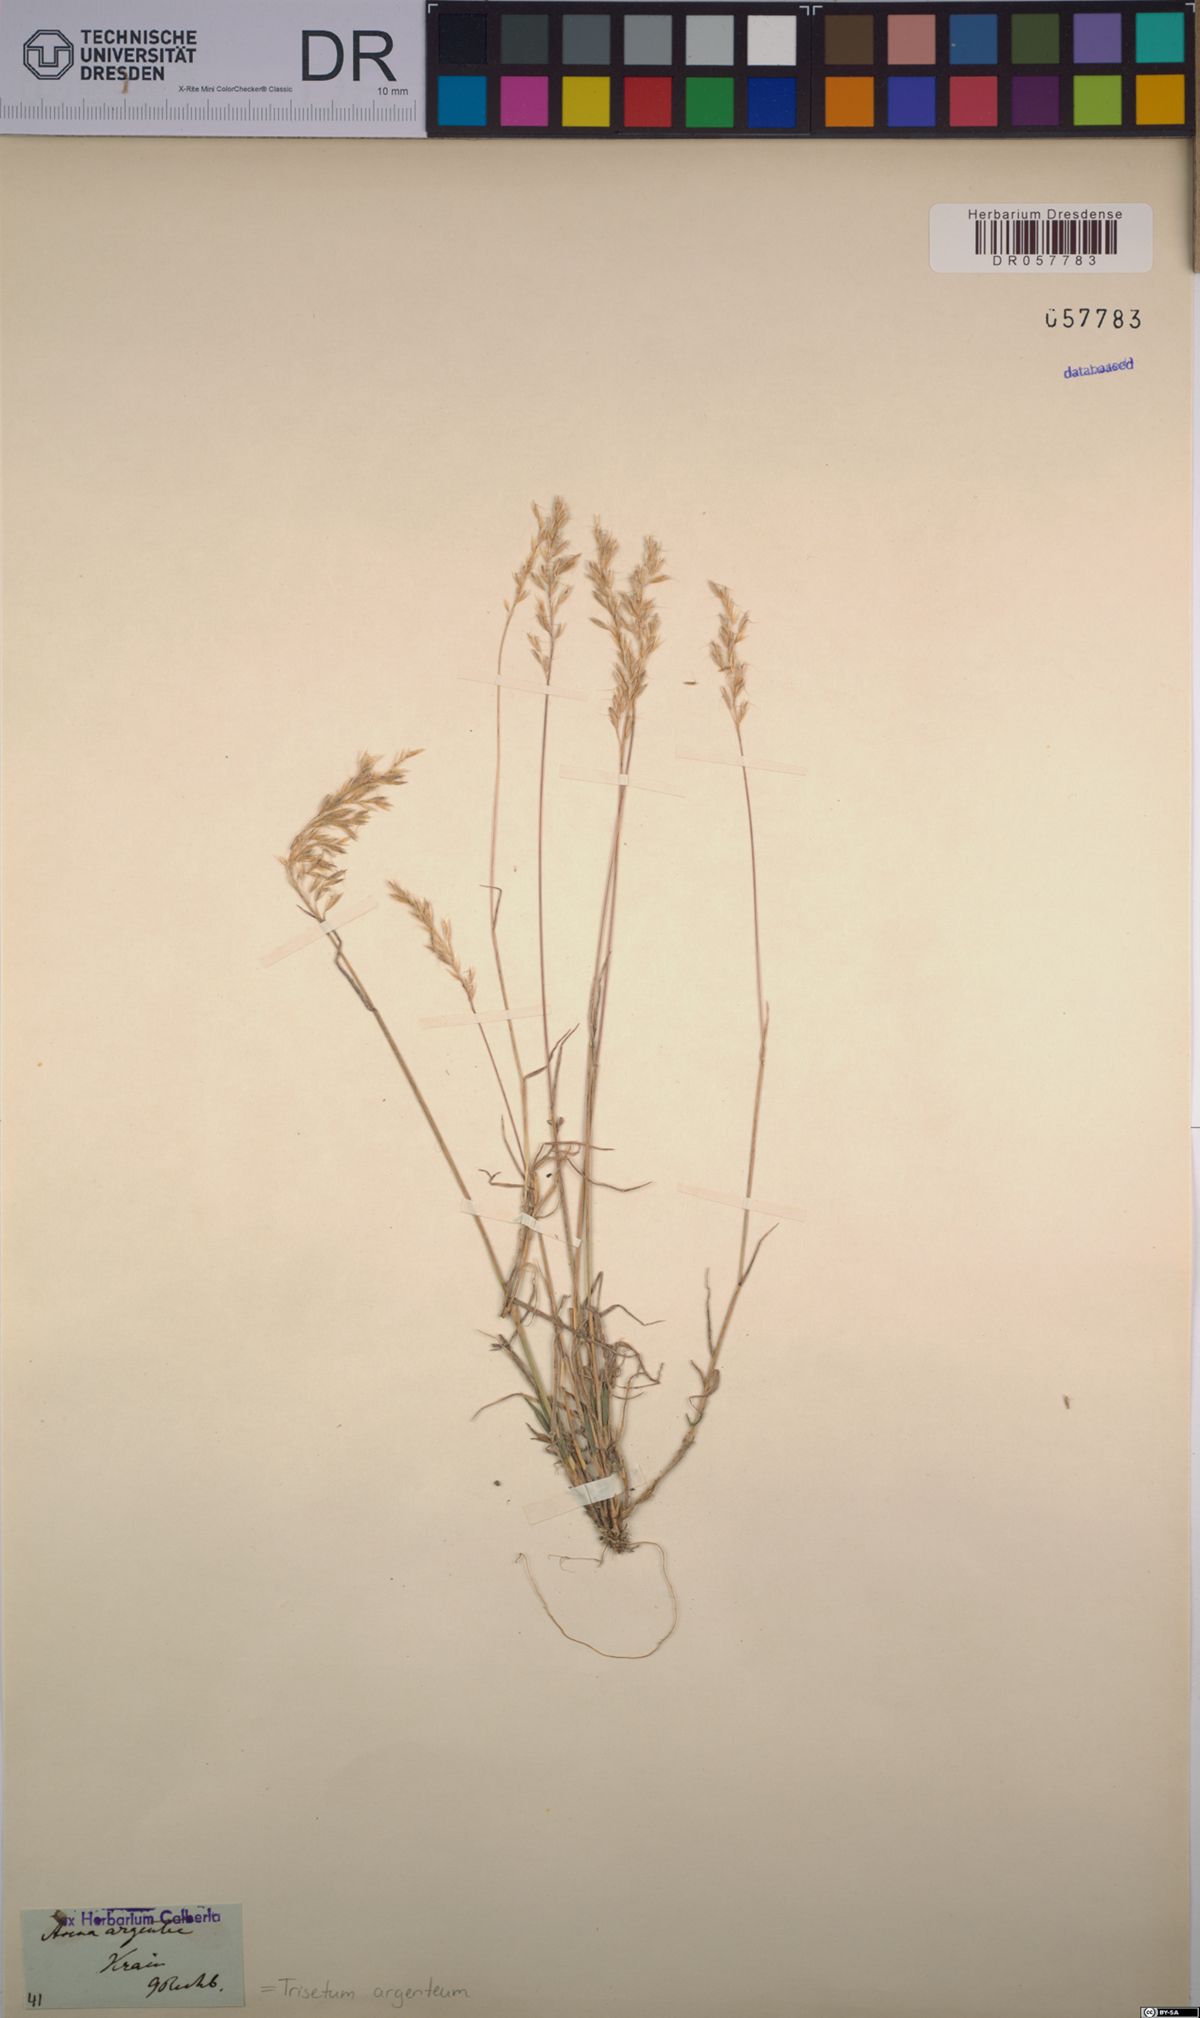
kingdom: Plantae
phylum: Tracheophyta
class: Liliopsida
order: Poales
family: Poaceae
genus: Trisetum
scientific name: Trisetum argenteum
